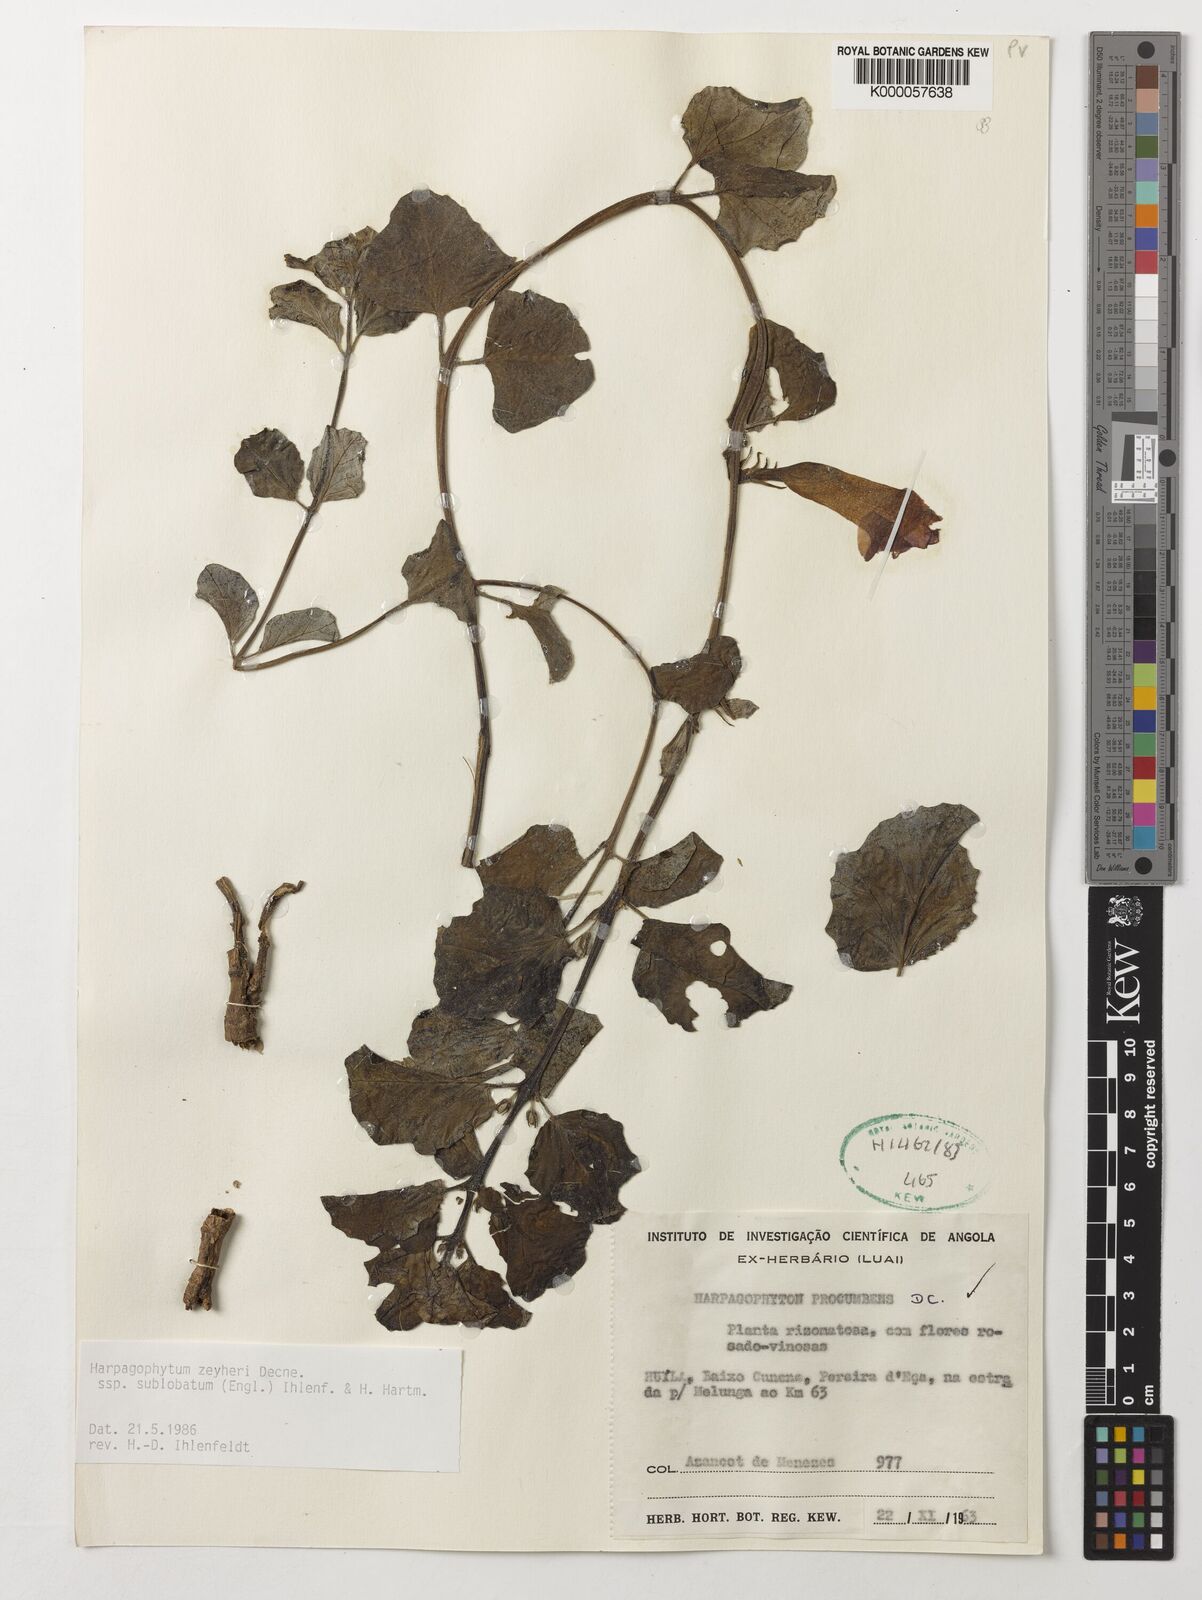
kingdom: Plantae
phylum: Tracheophyta
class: Magnoliopsida
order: Lamiales
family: Pedaliaceae
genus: Harpagophytum
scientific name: Harpagophytum zeyheri
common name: Grappleplant
